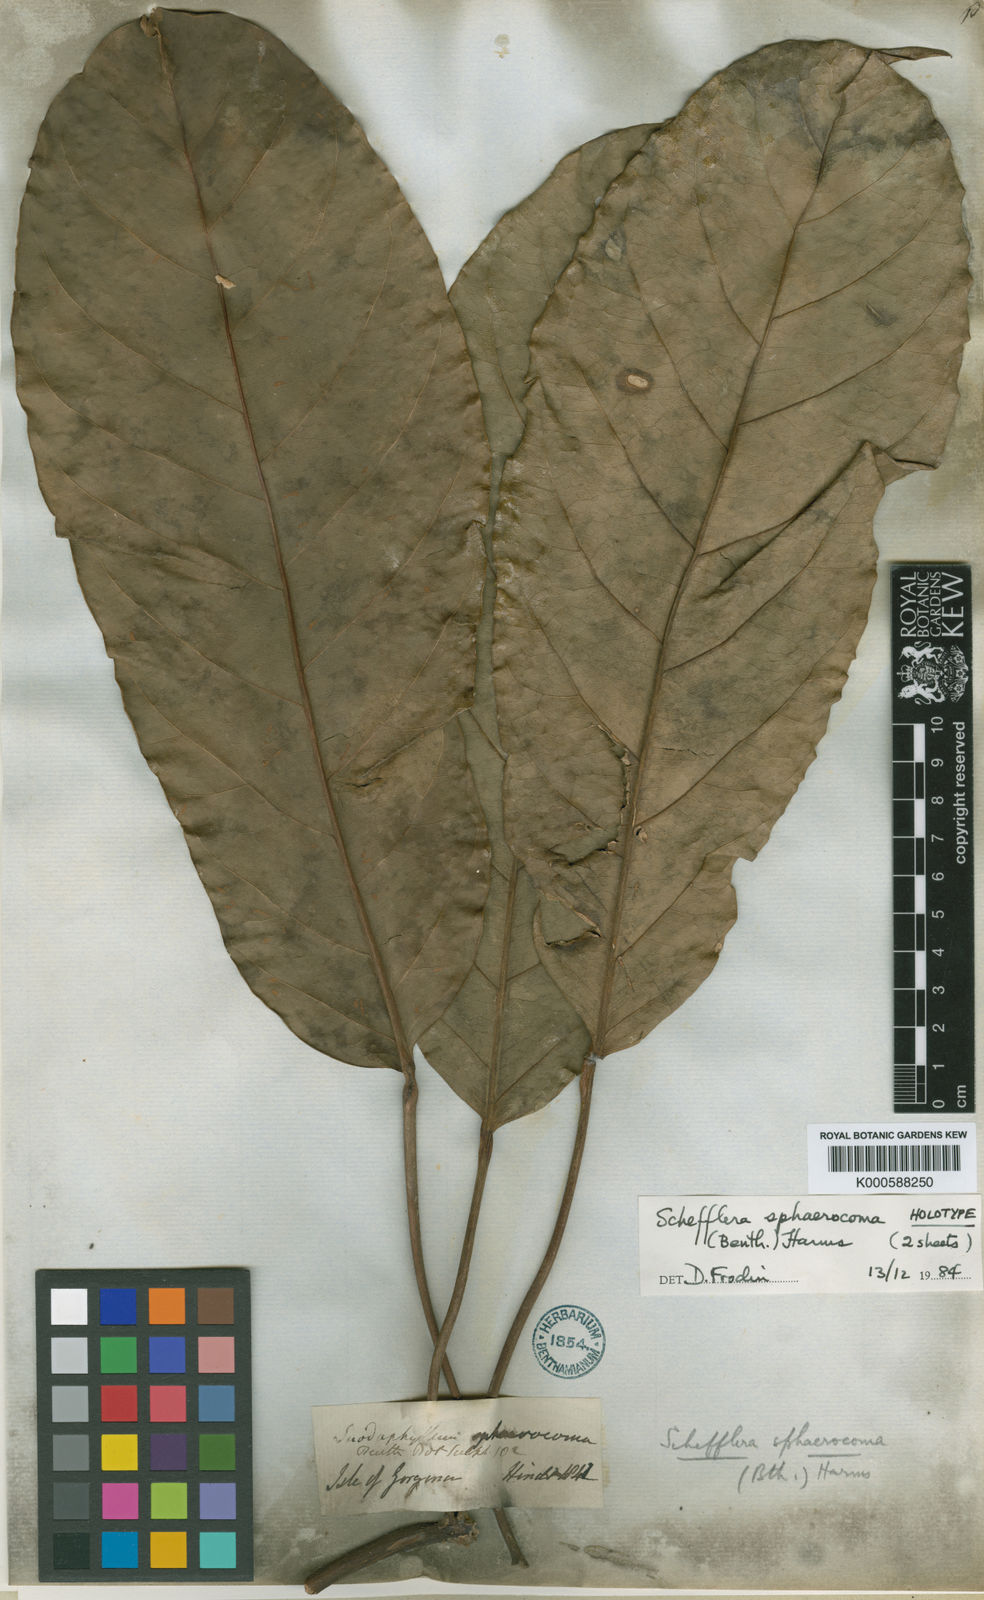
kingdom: Plantae
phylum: Tracheophyta
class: Magnoliopsida
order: Apiales
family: Araliaceae
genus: Sciodaphyllum
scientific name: Sciodaphyllum sphaerocoma
